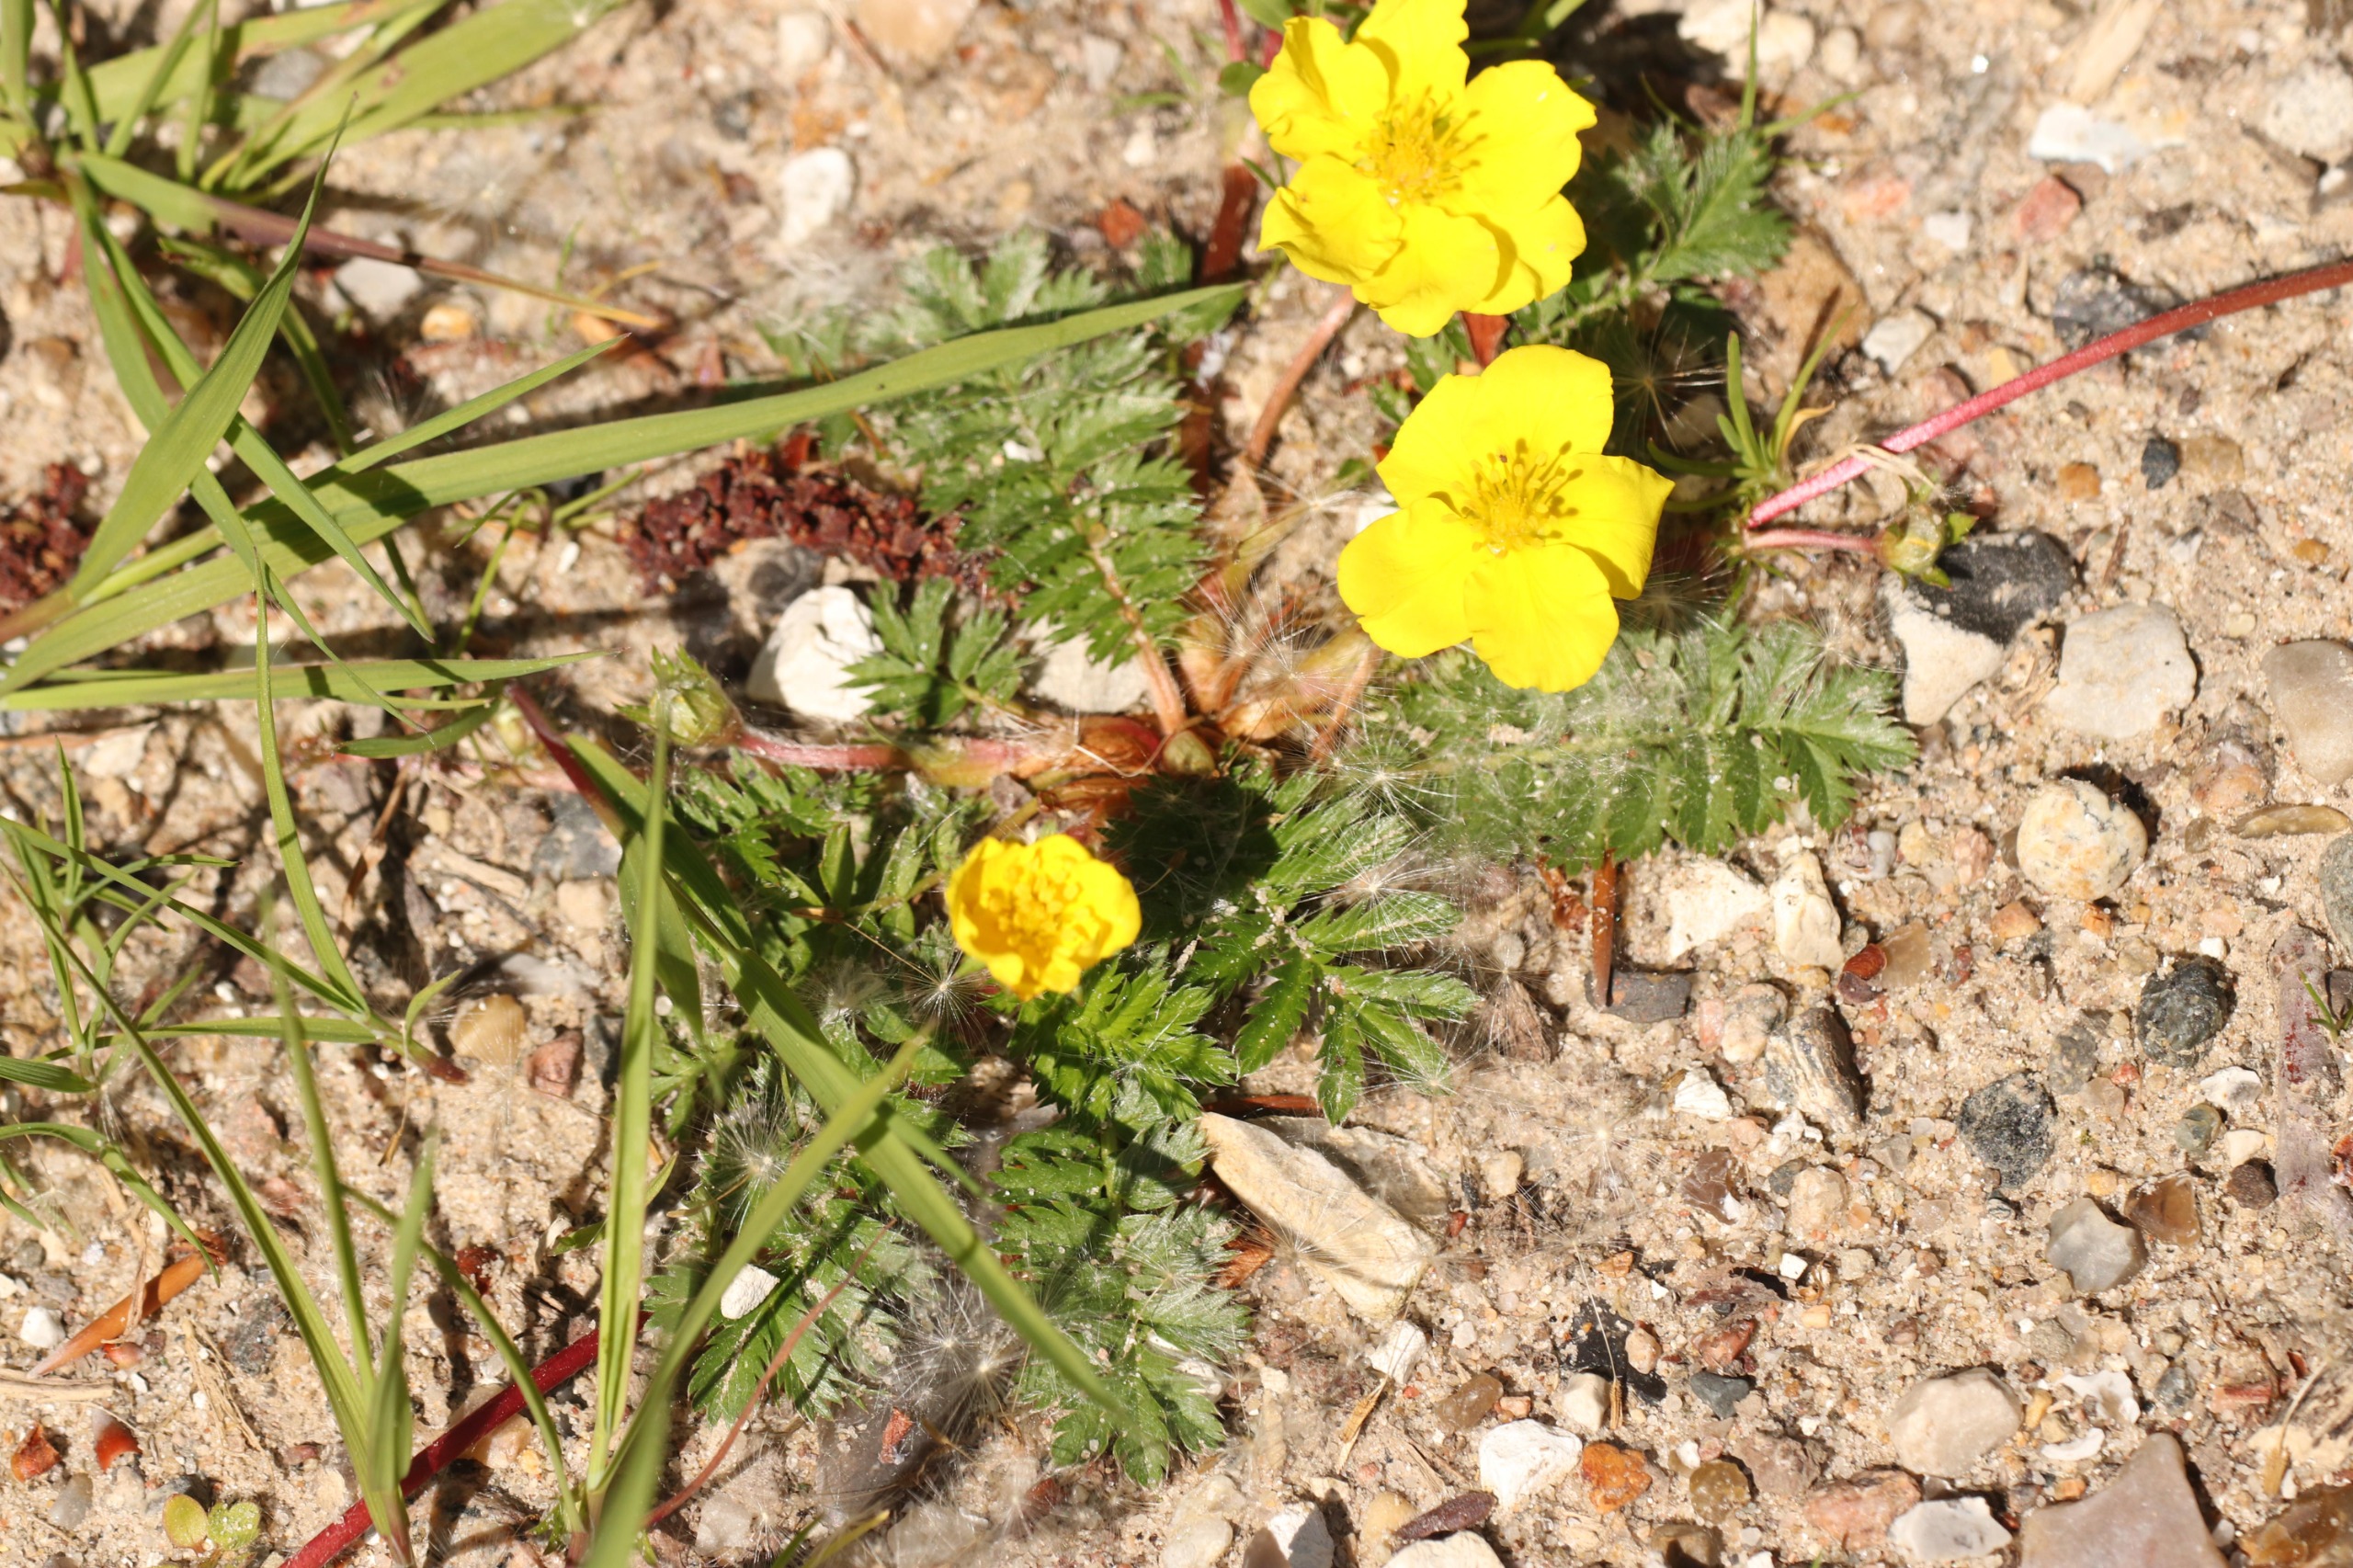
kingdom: Plantae
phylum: Tracheophyta
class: Magnoliopsida
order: Rosales
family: Rosaceae
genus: Argentina
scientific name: Argentina anserina
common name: Gåsepotentil
